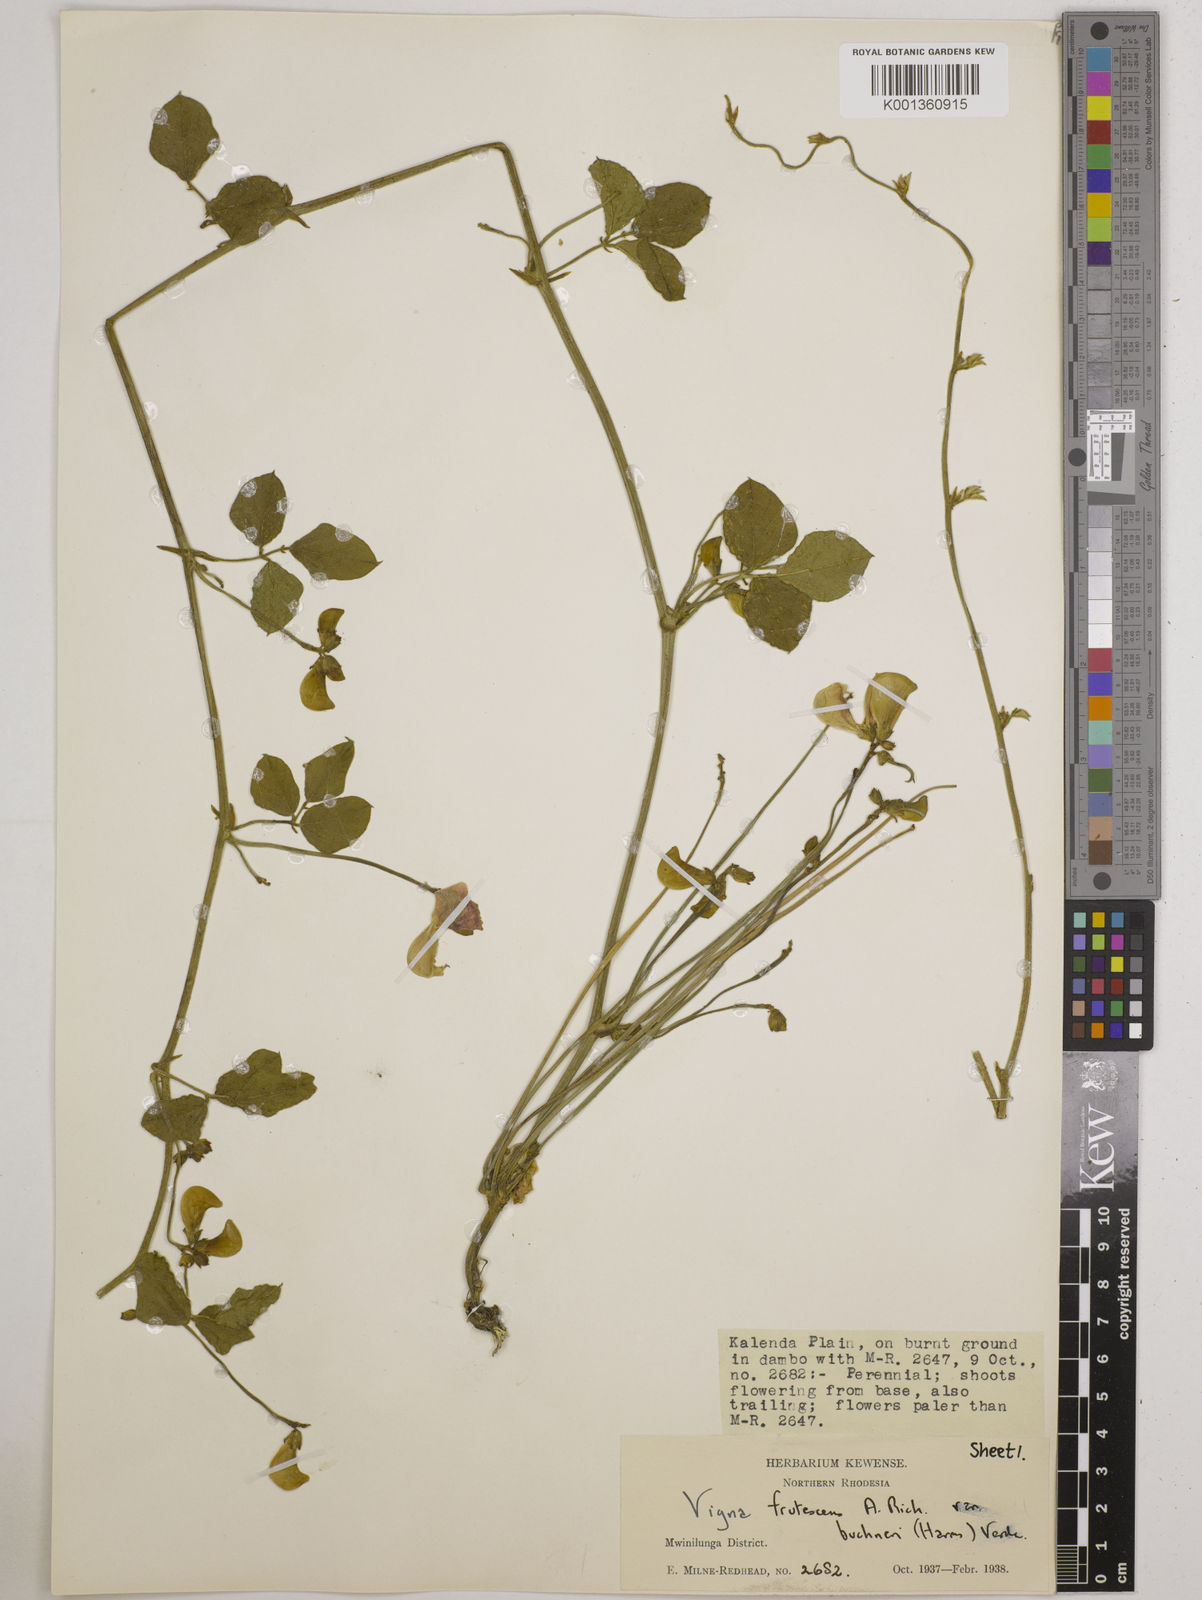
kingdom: Plantae
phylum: Tracheophyta
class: Magnoliopsida
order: Fabales
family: Fabaceae
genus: Vigna
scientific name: Vigna frutescens
